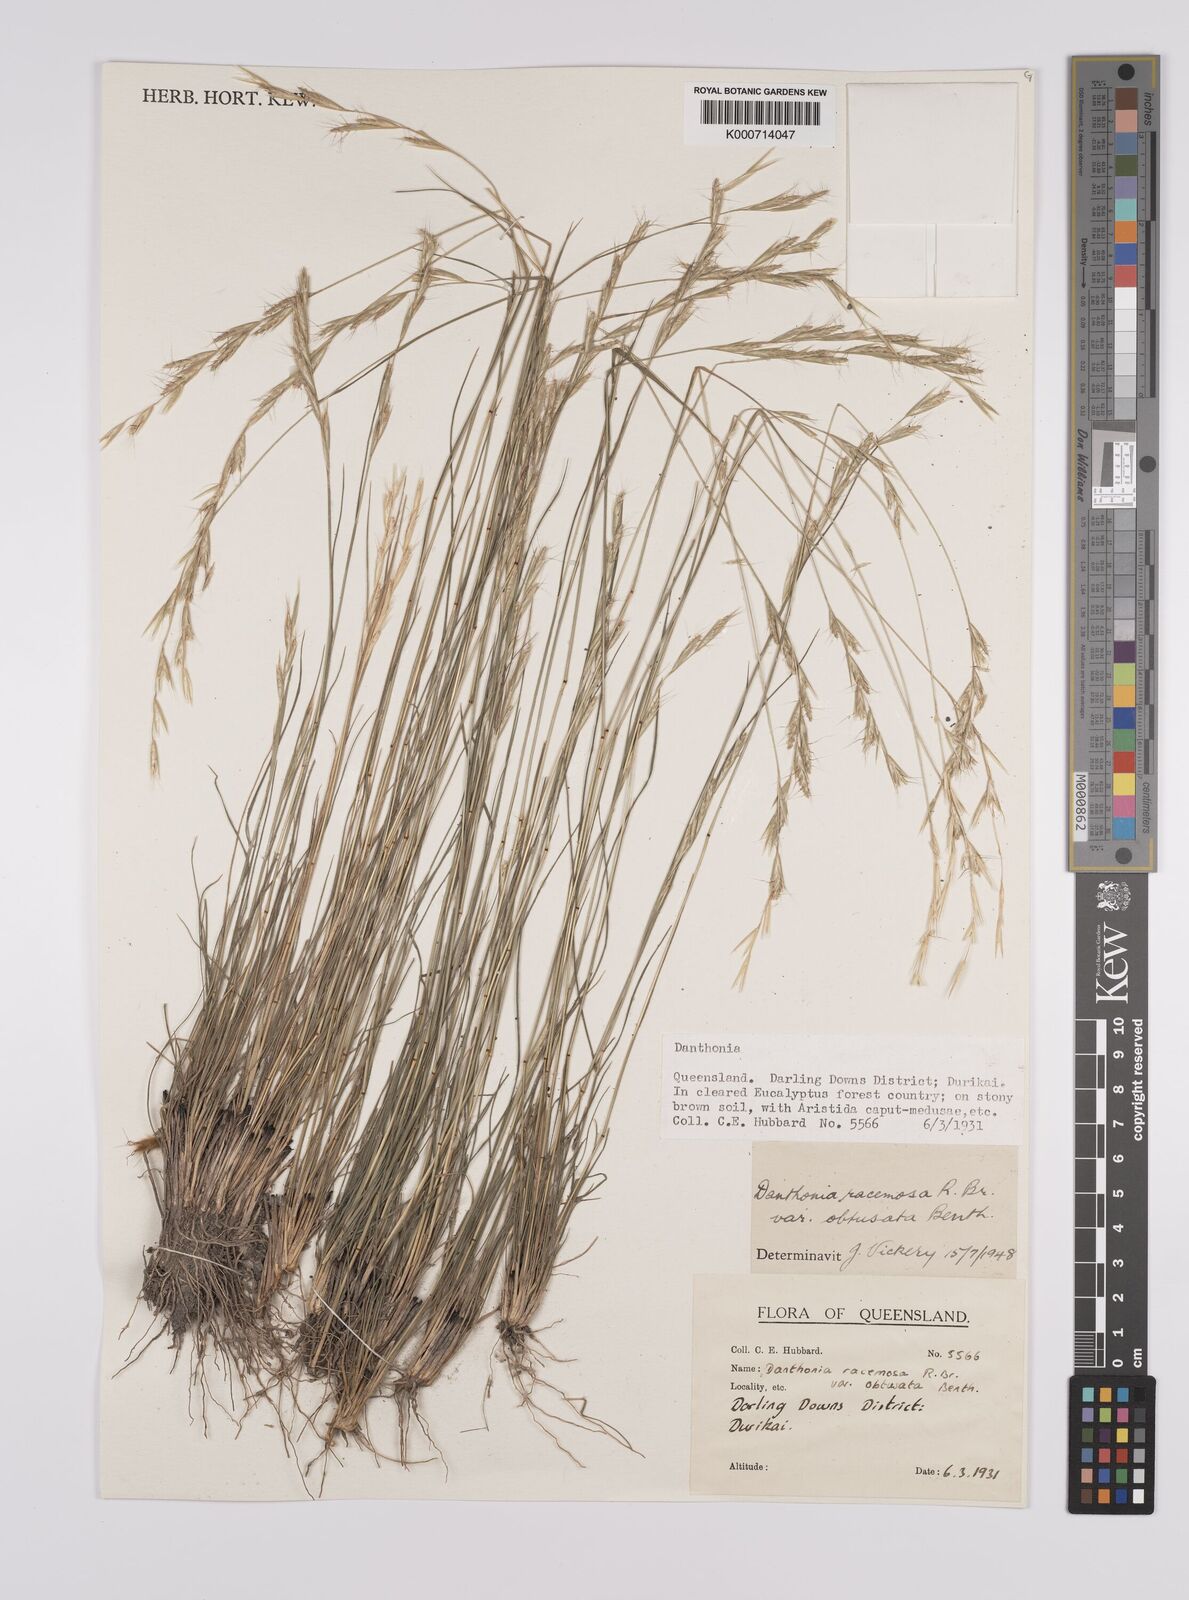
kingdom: Plantae
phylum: Tracheophyta
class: Liliopsida
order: Poales
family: Poaceae
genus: Rytidosperma
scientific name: Rytidosperma racemosum
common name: Wallaby-grass
